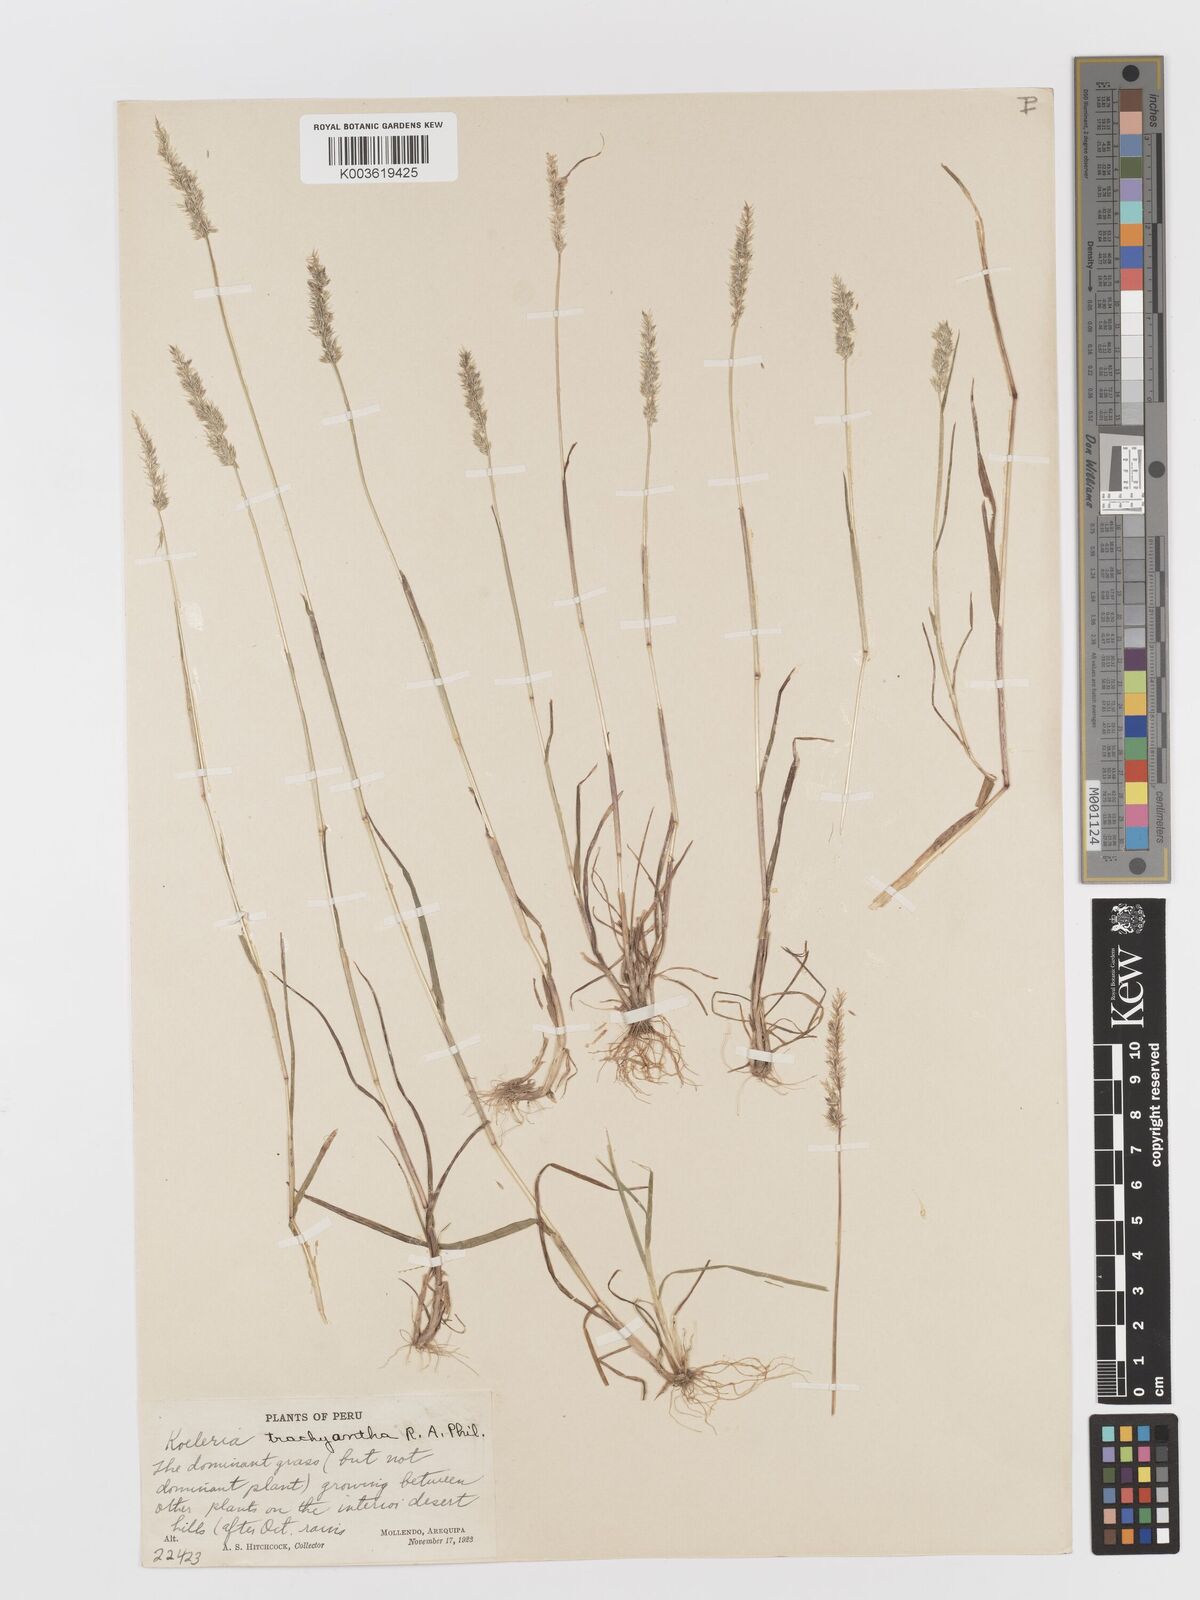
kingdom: Plantae
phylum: Tracheophyta
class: Liliopsida
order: Poales
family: Poaceae
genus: Rostraria
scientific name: Rostraria trachyantha
